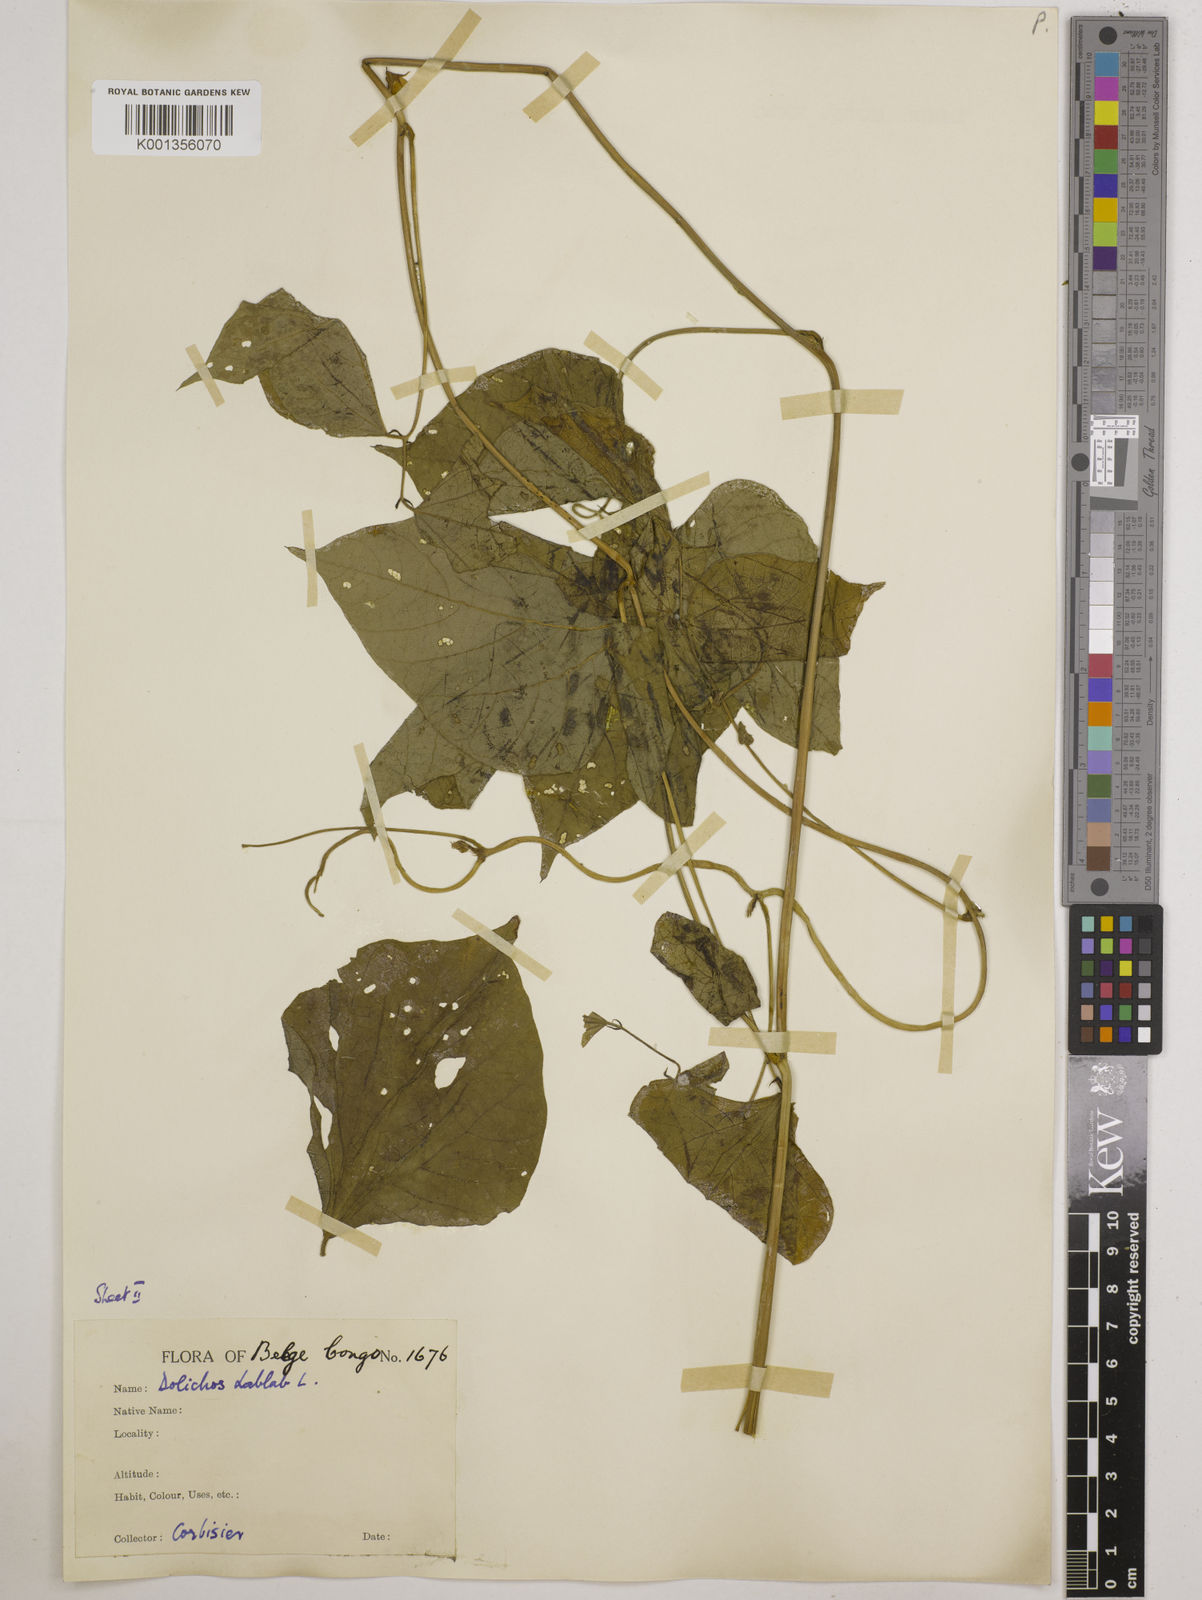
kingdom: Plantae
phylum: Tracheophyta
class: Magnoliopsida
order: Fabales
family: Fabaceae
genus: Lablab
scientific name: Lablab purpureus
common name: Lablab-bean
